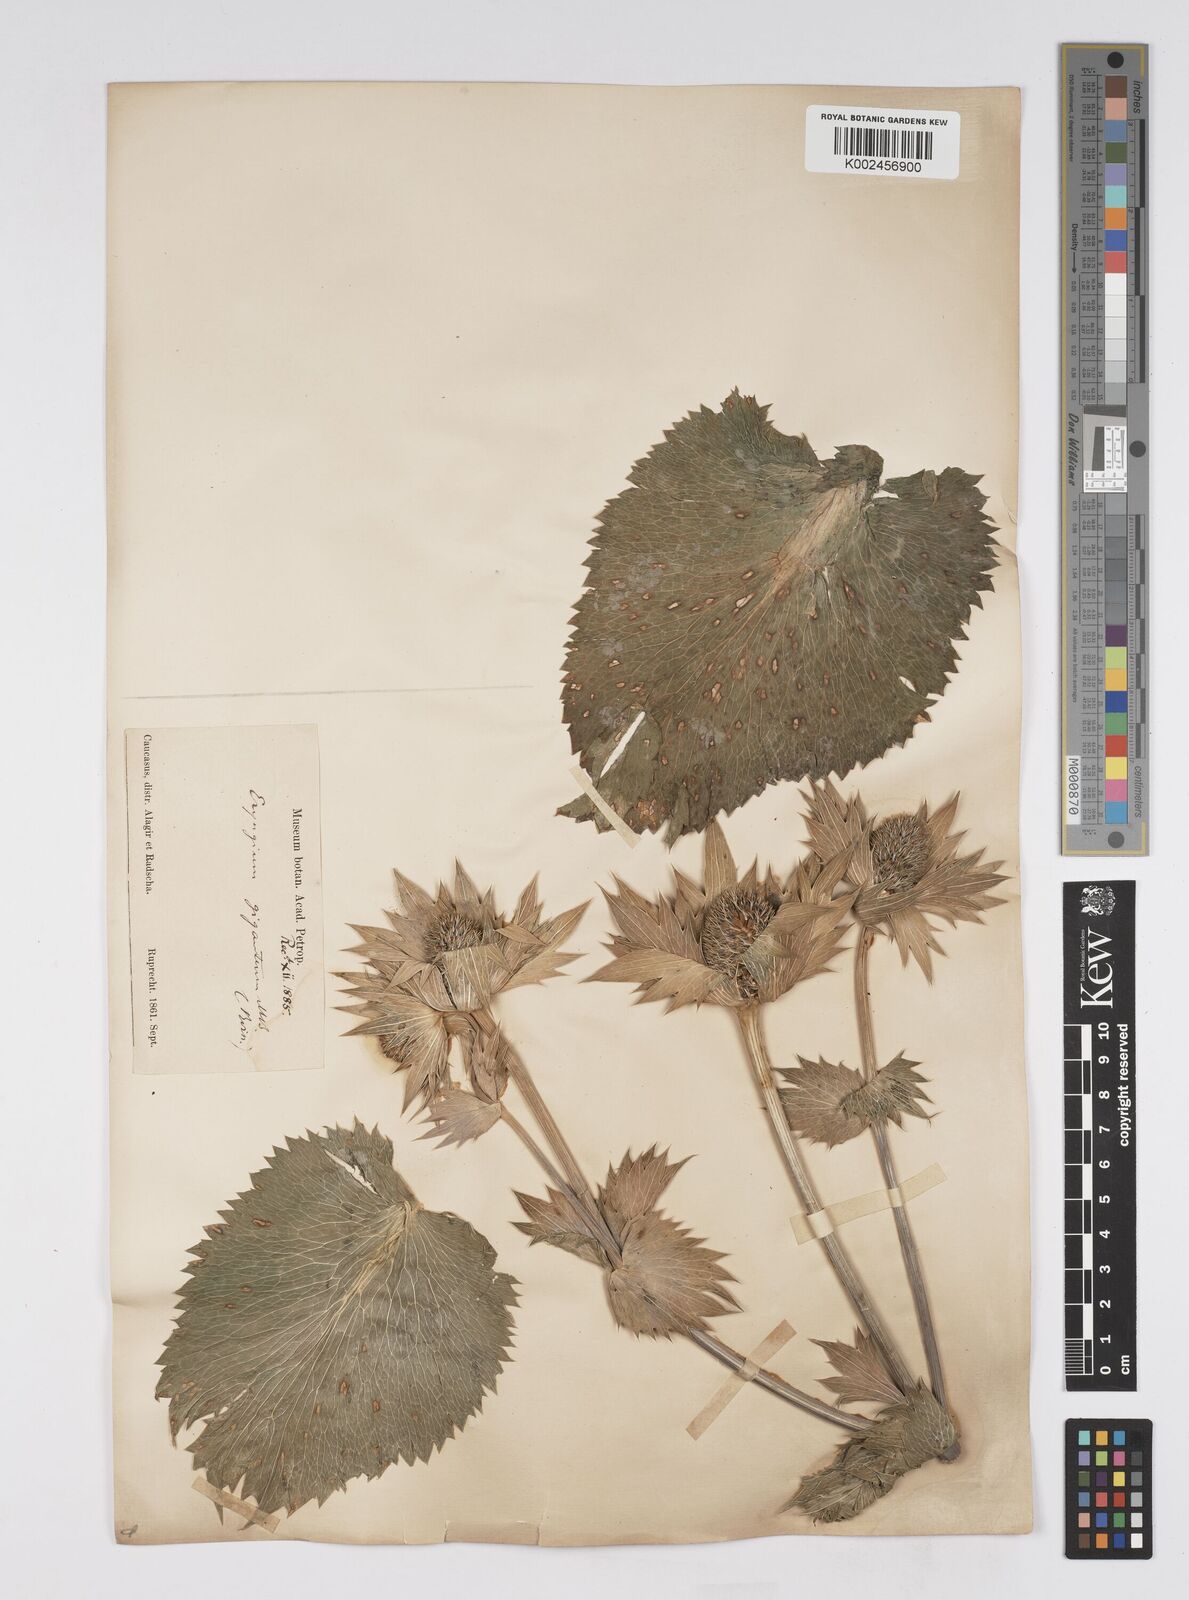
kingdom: Plantae
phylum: Tracheophyta
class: Magnoliopsida
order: Apiales
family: Apiaceae
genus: Eryngium
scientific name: Eryngium giganteum
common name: Tall eryngo
